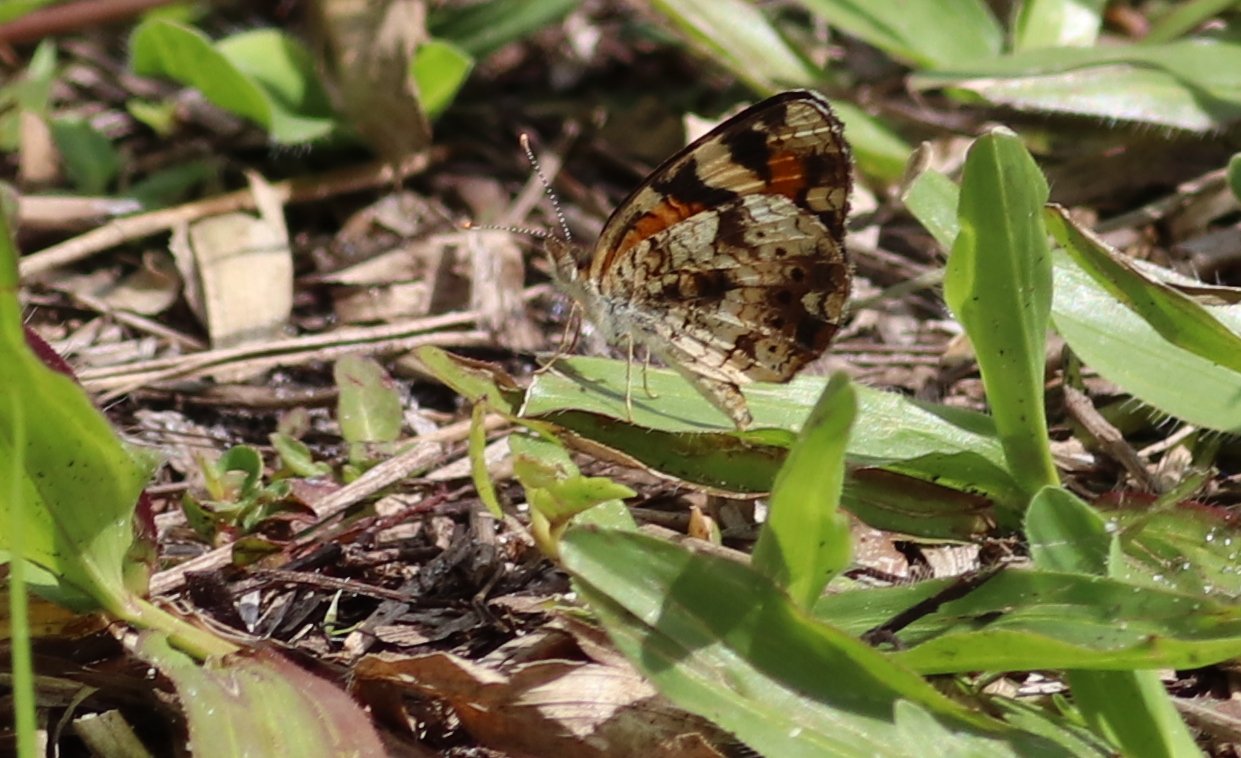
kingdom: Animalia
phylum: Arthropoda
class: Insecta
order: Lepidoptera
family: Nymphalidae
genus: Phyciodes
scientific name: Phyciodes phaon
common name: Phaon Crescent
